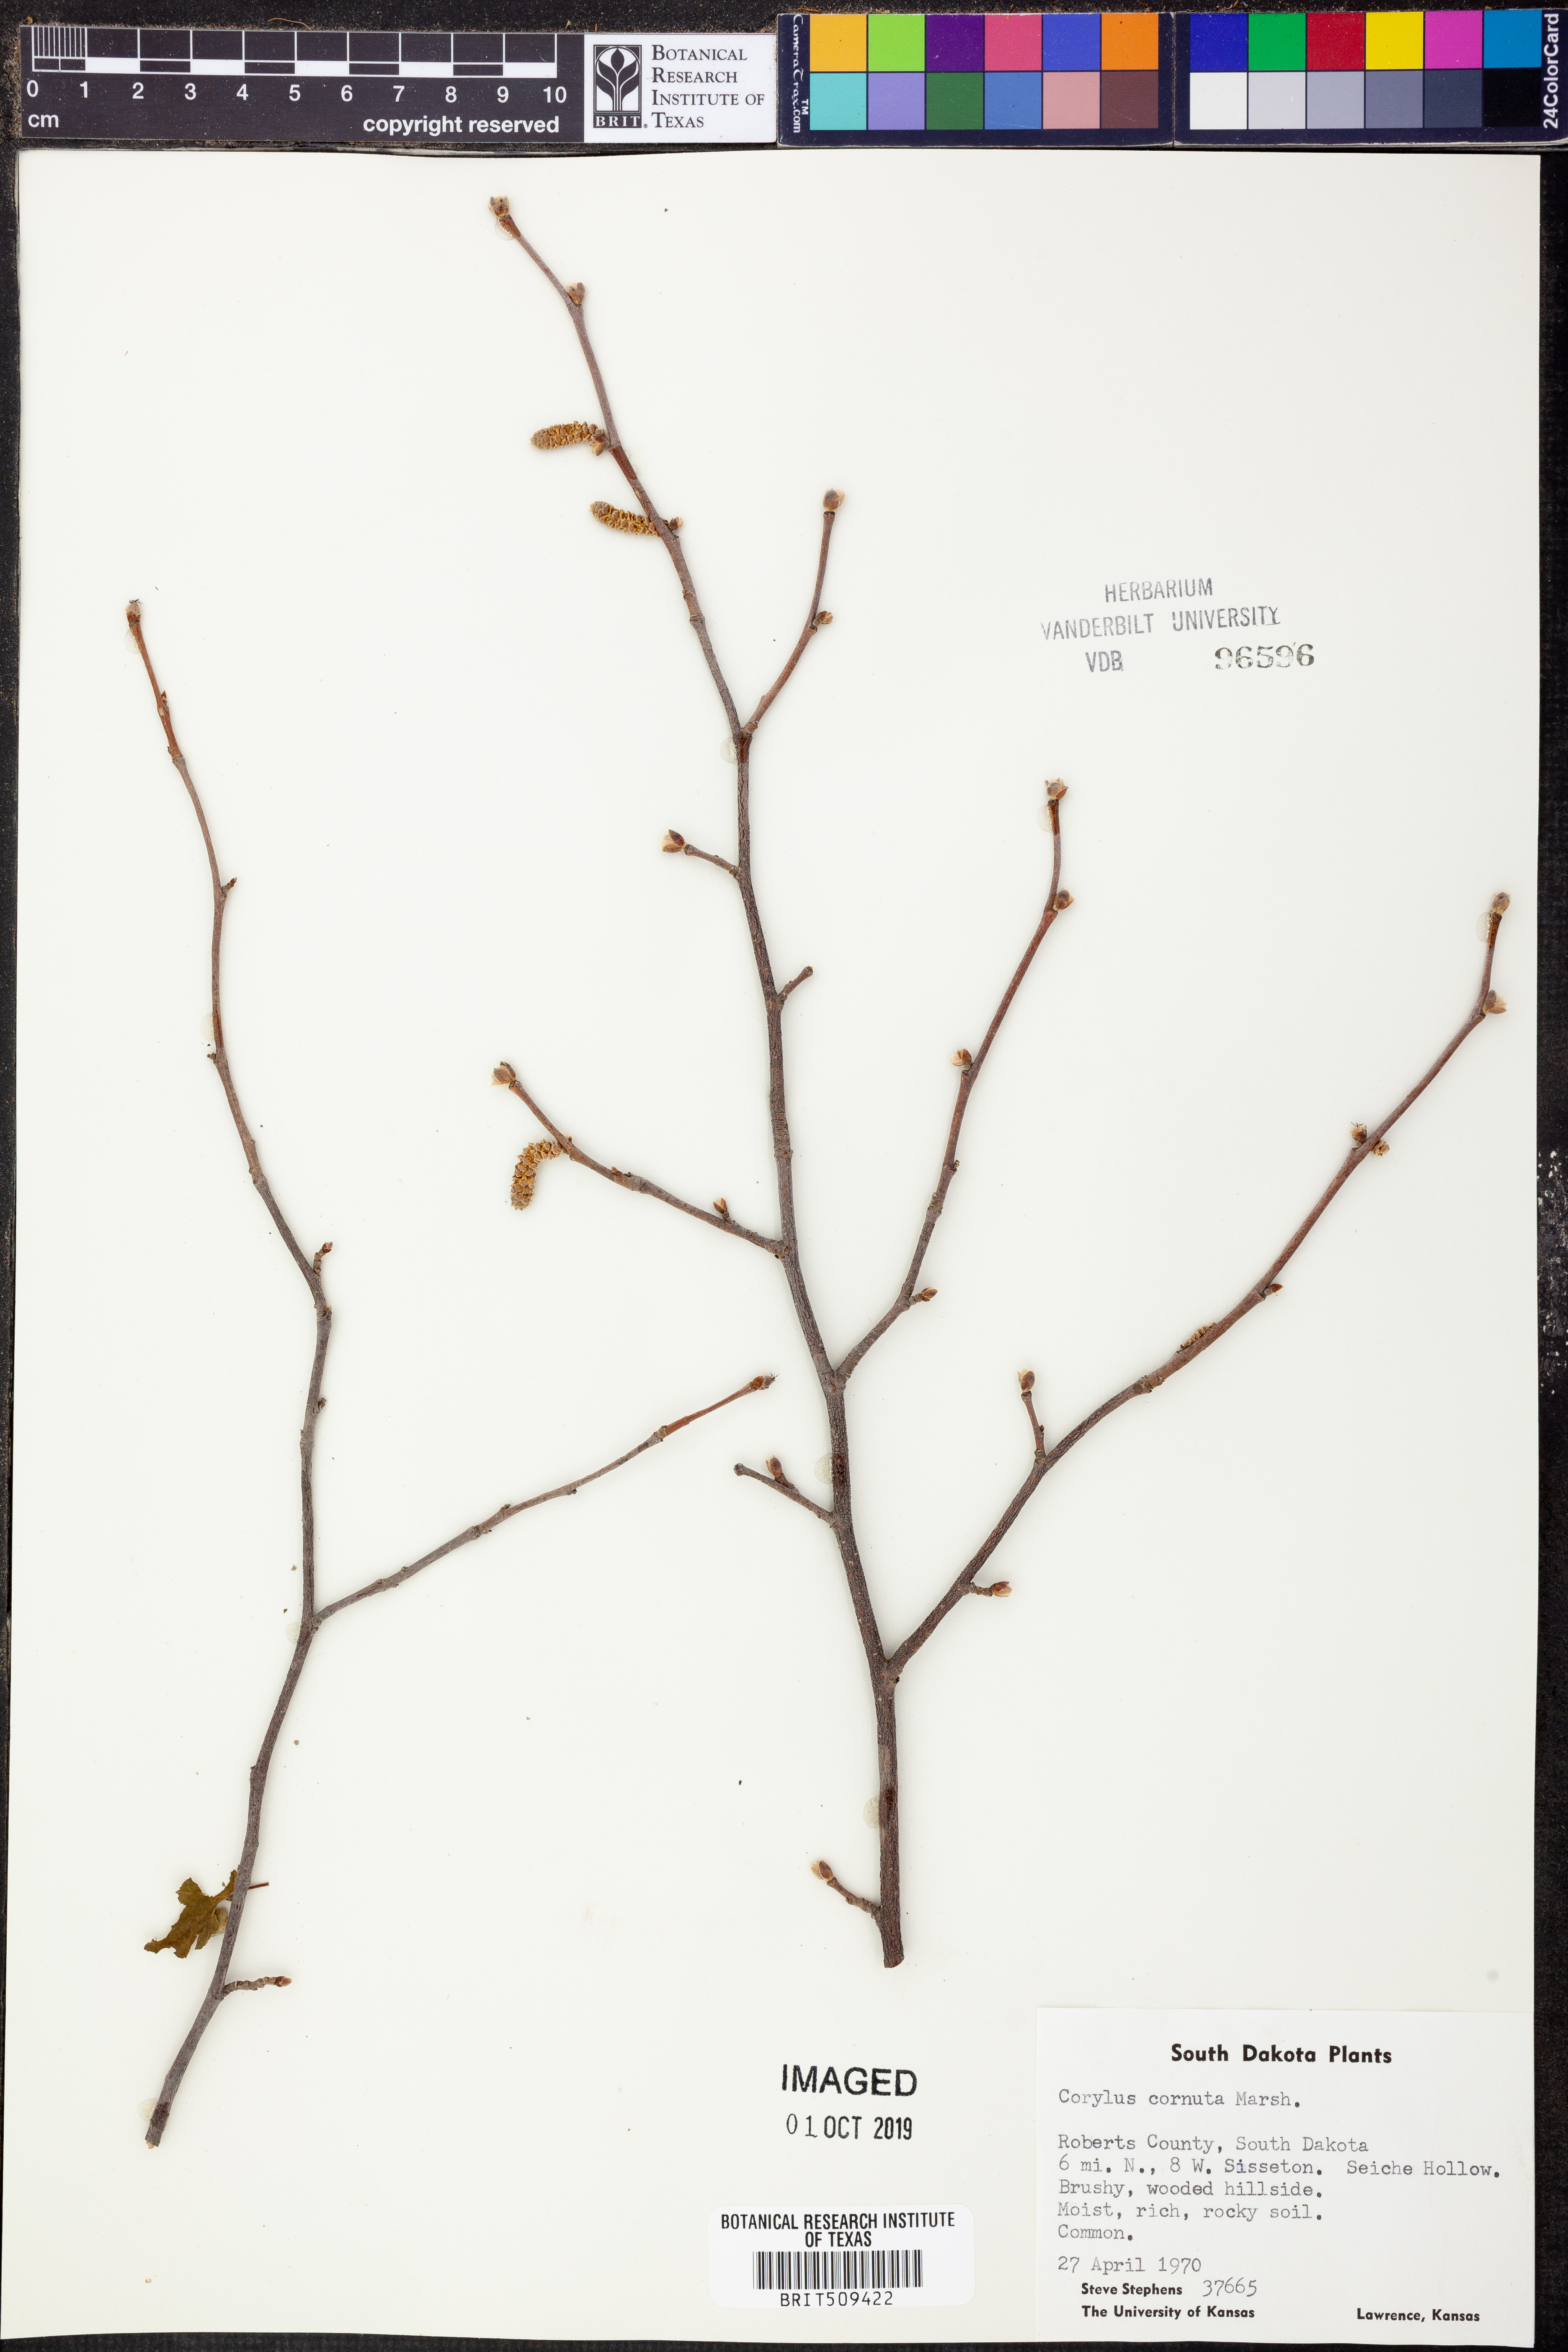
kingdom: Plantae
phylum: Tracheophyta
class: Magnoliopsida
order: Fagales
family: Betulaceae
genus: Corylus
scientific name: Corylus cornuta
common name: Beaked hazel
